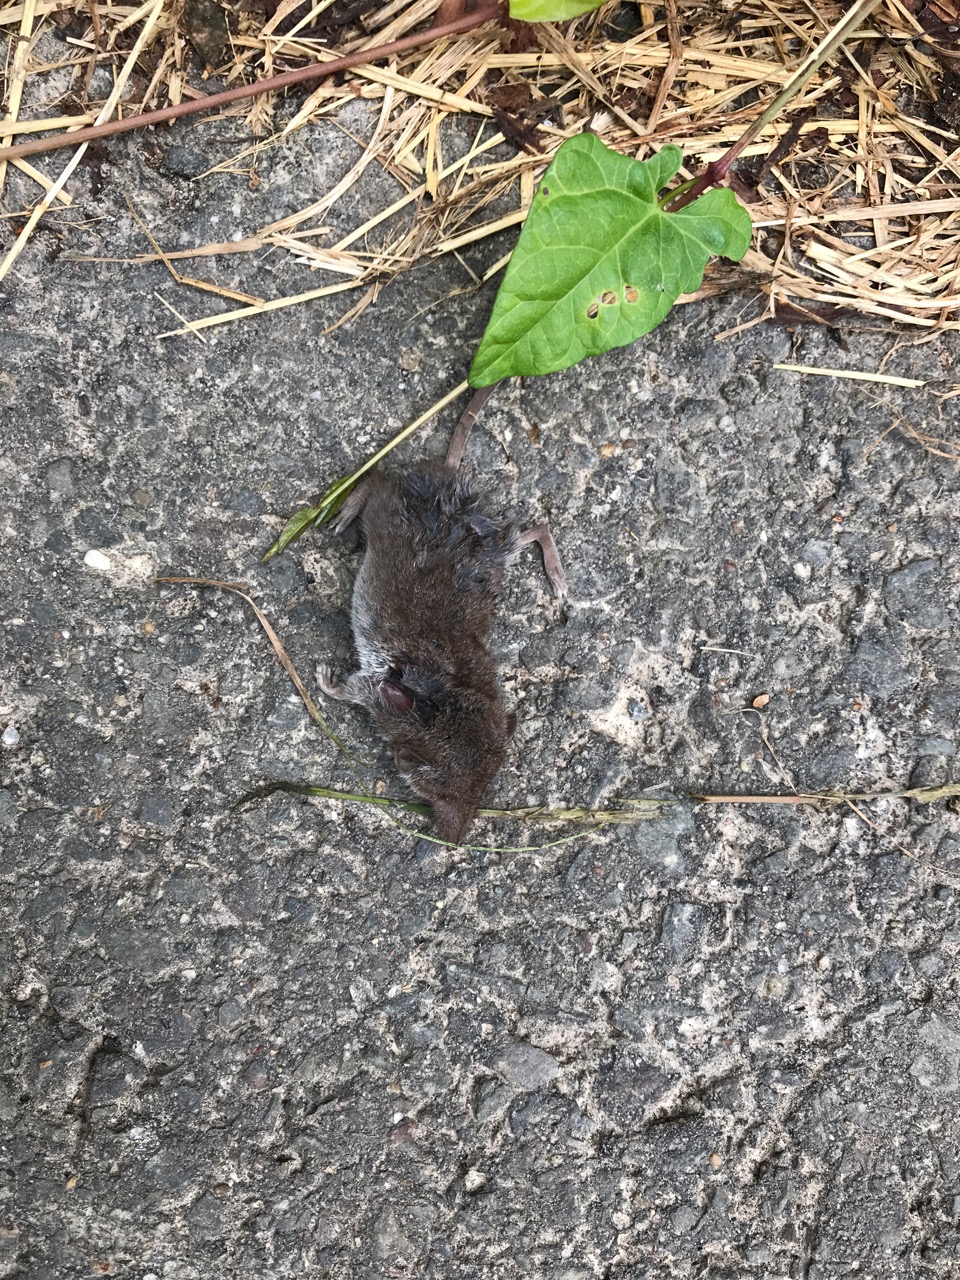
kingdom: Animalia
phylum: Chordata
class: Mammalia
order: Soricomorpha
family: Soricidae
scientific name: Soricidae
